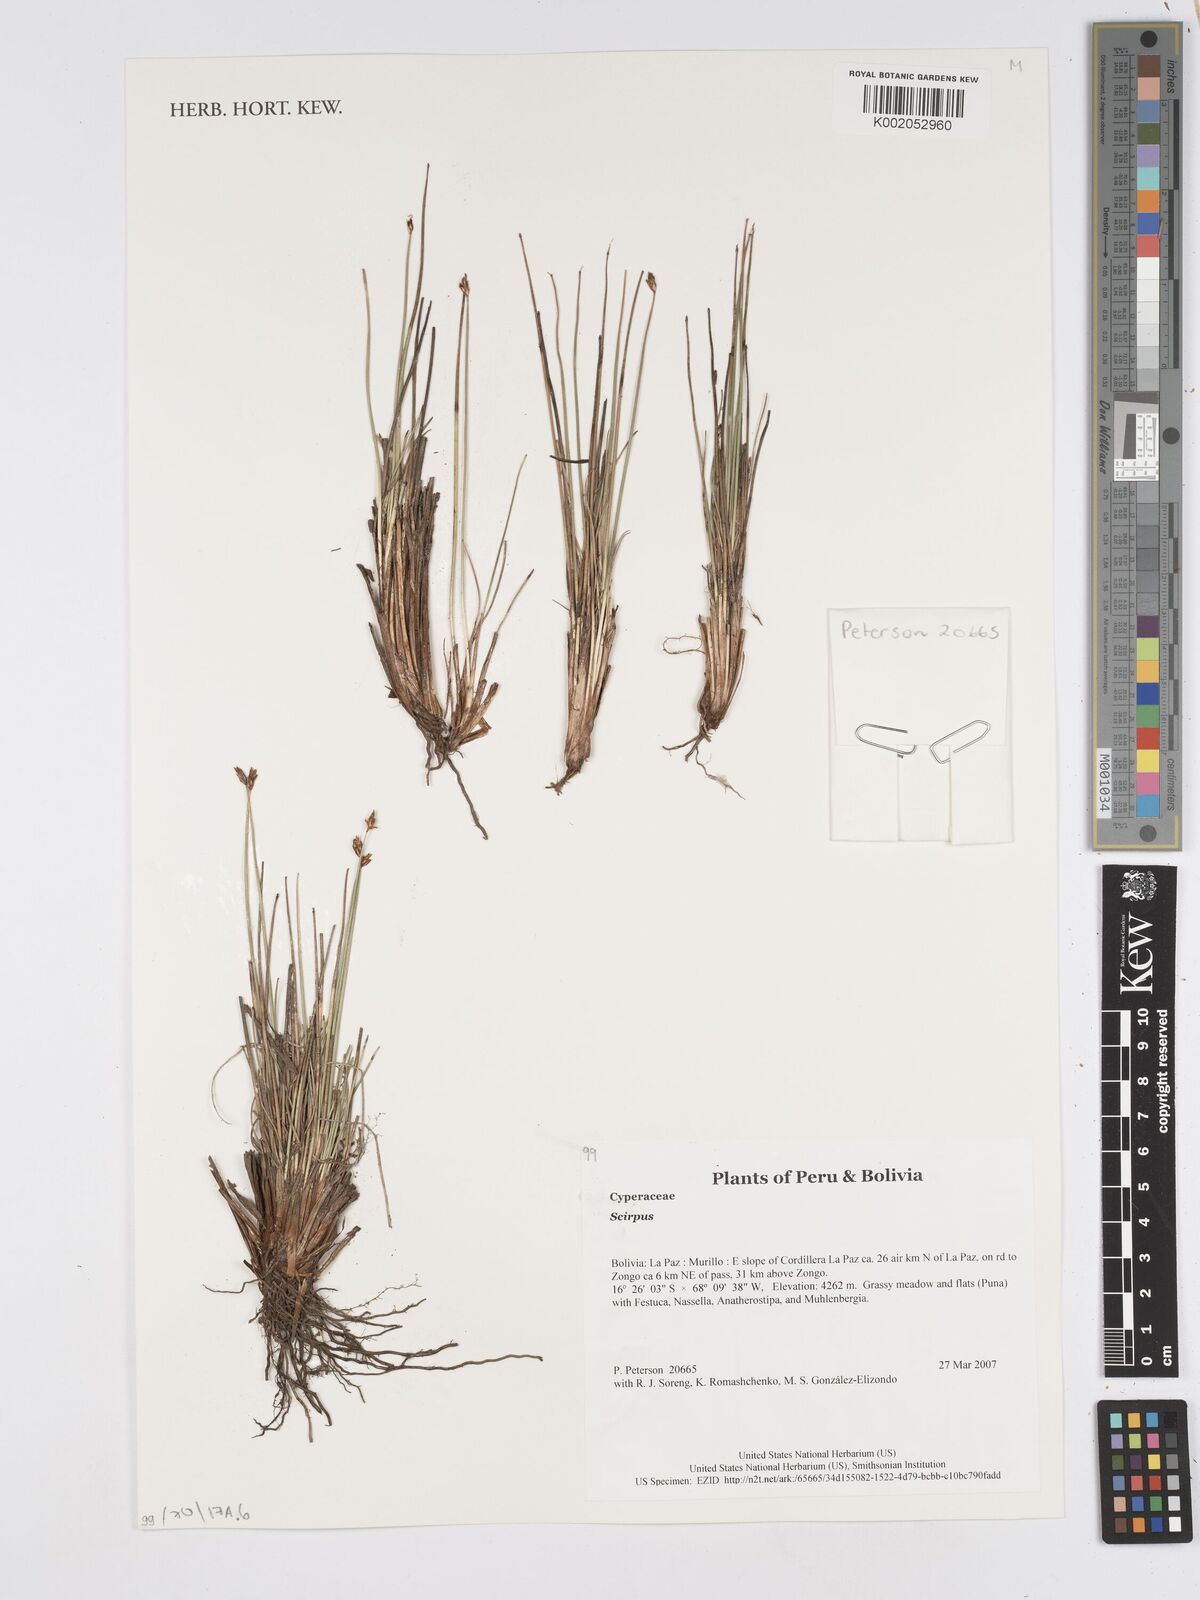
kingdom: Plantae
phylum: Tracheophyta
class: Liliopsida
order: Poales
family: Cyperaceae
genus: Scirpus
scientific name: Scirpus
